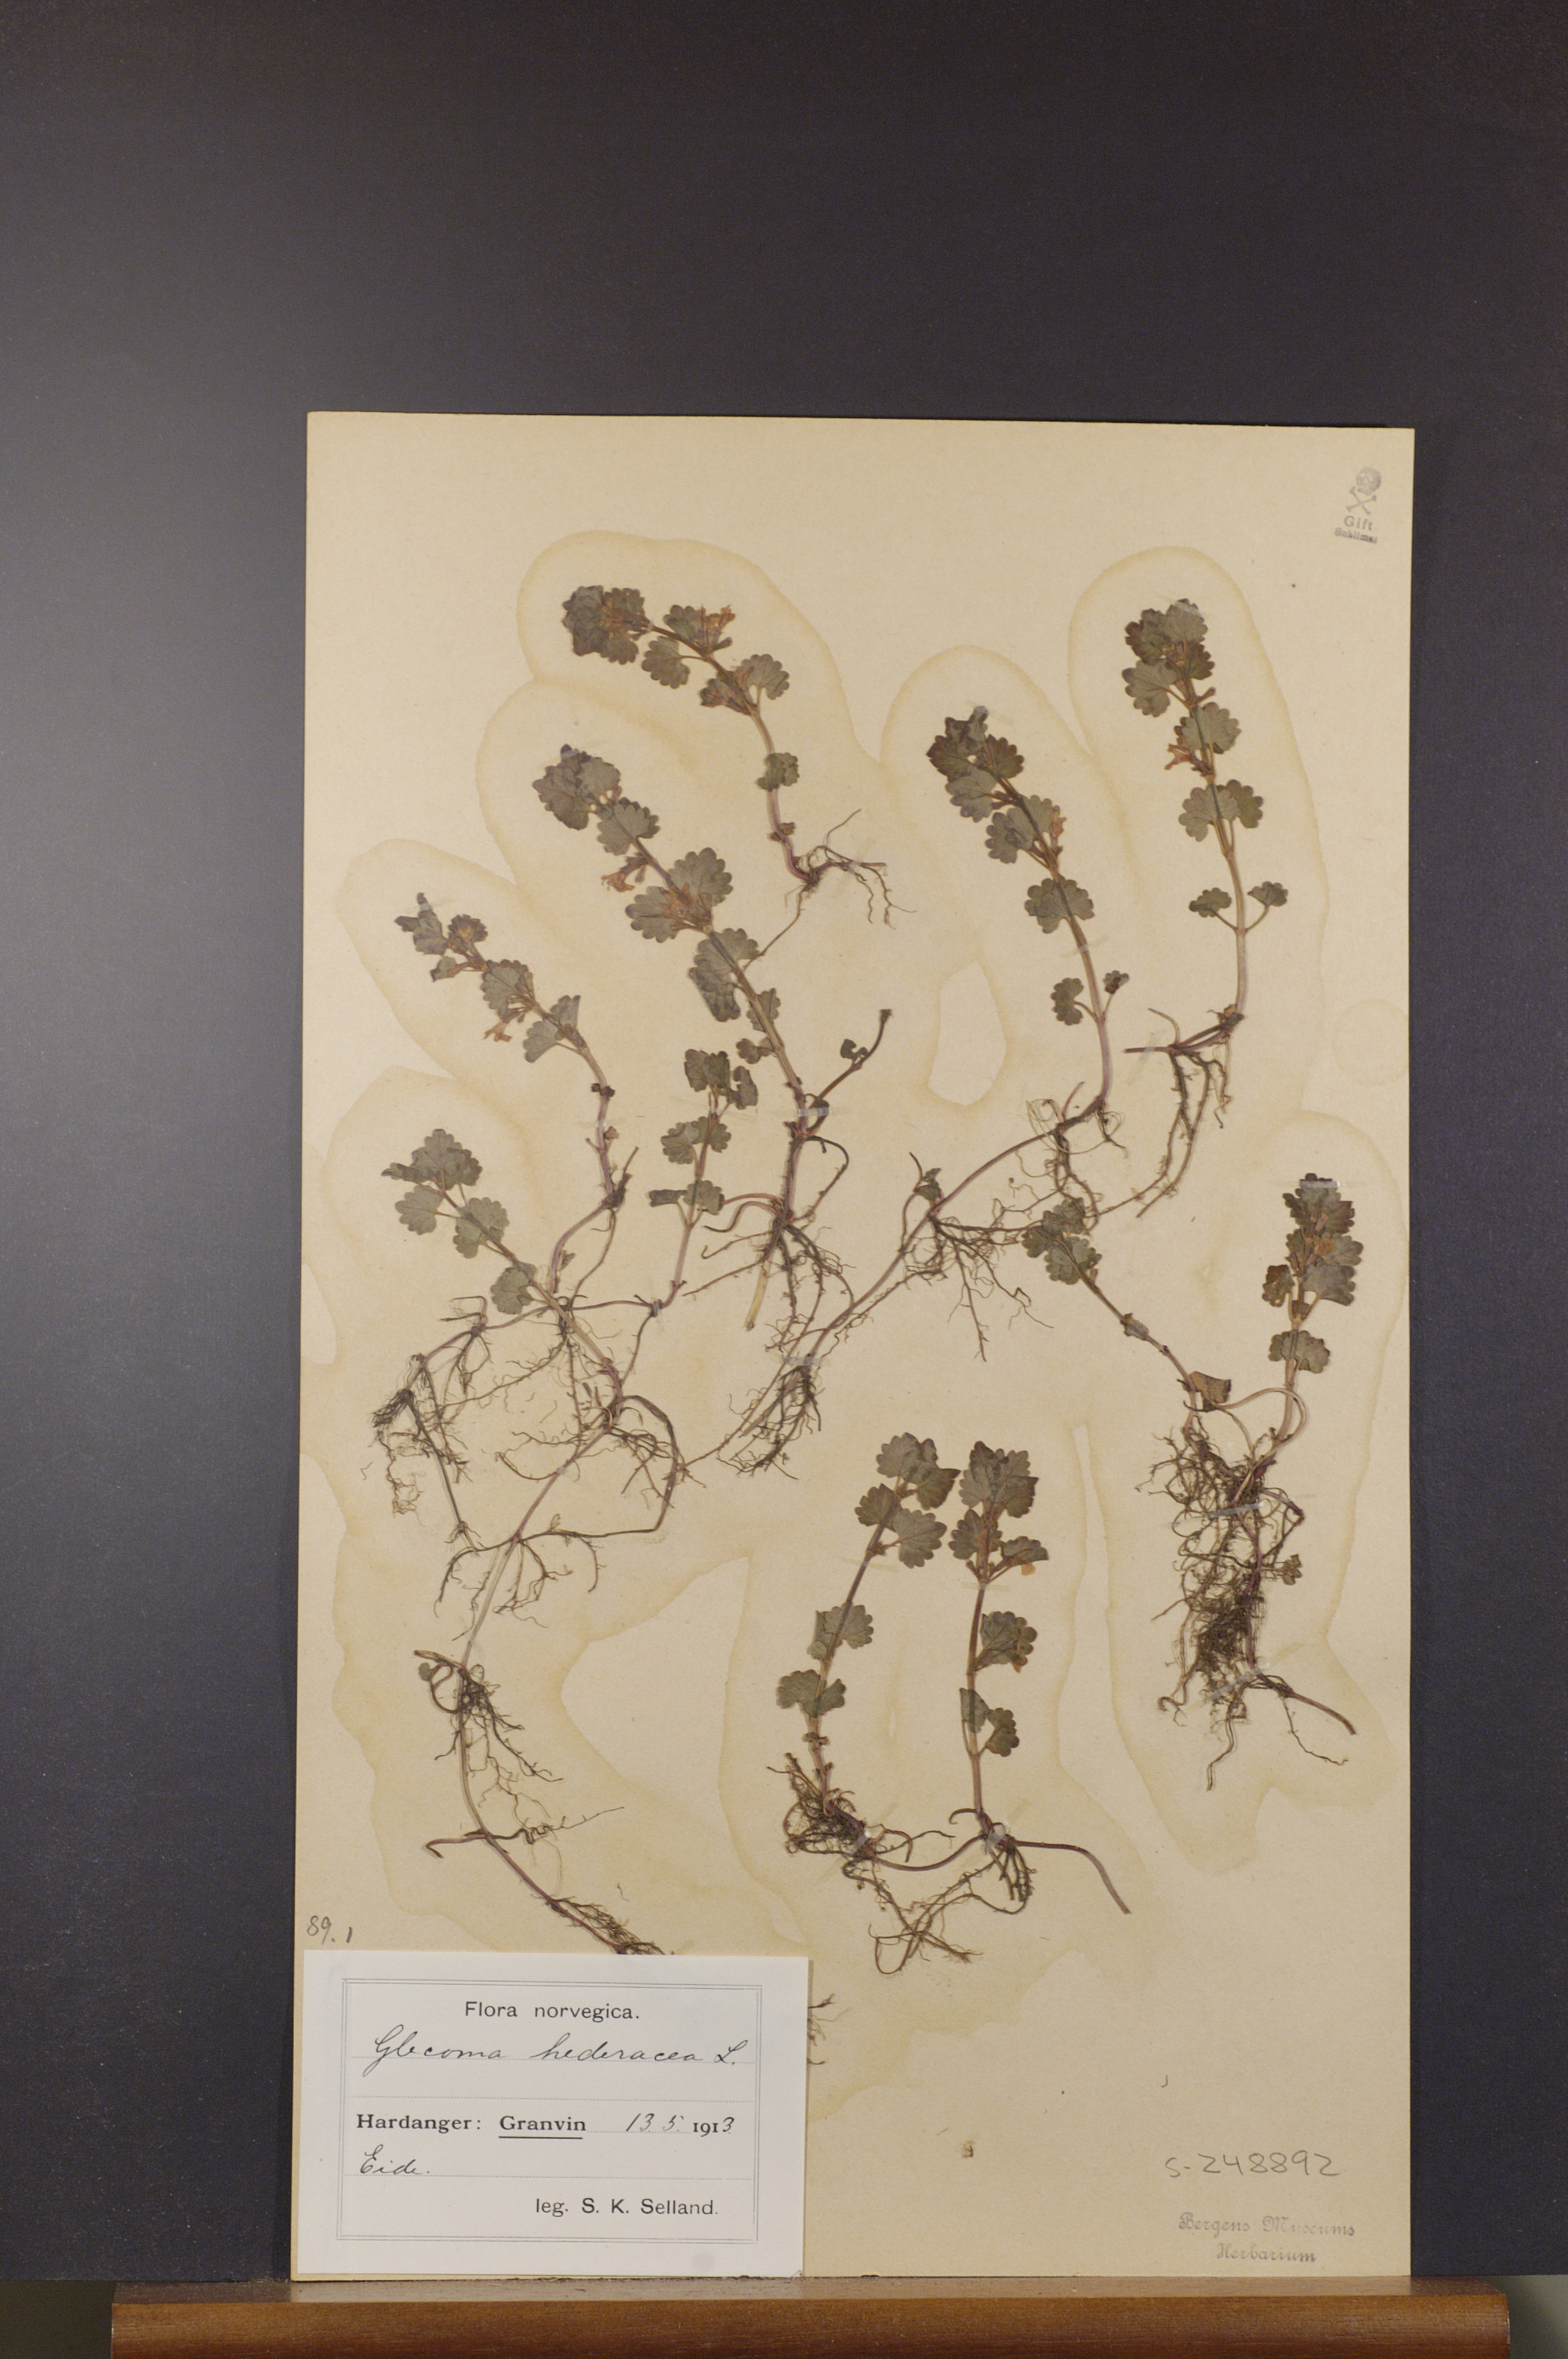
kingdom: Plantae
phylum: Tracheophyta
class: Magnoliopsida
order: Lamiales
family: Lamiaceae
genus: Glechoma
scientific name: Glechoma hederacea
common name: Ground ivy
